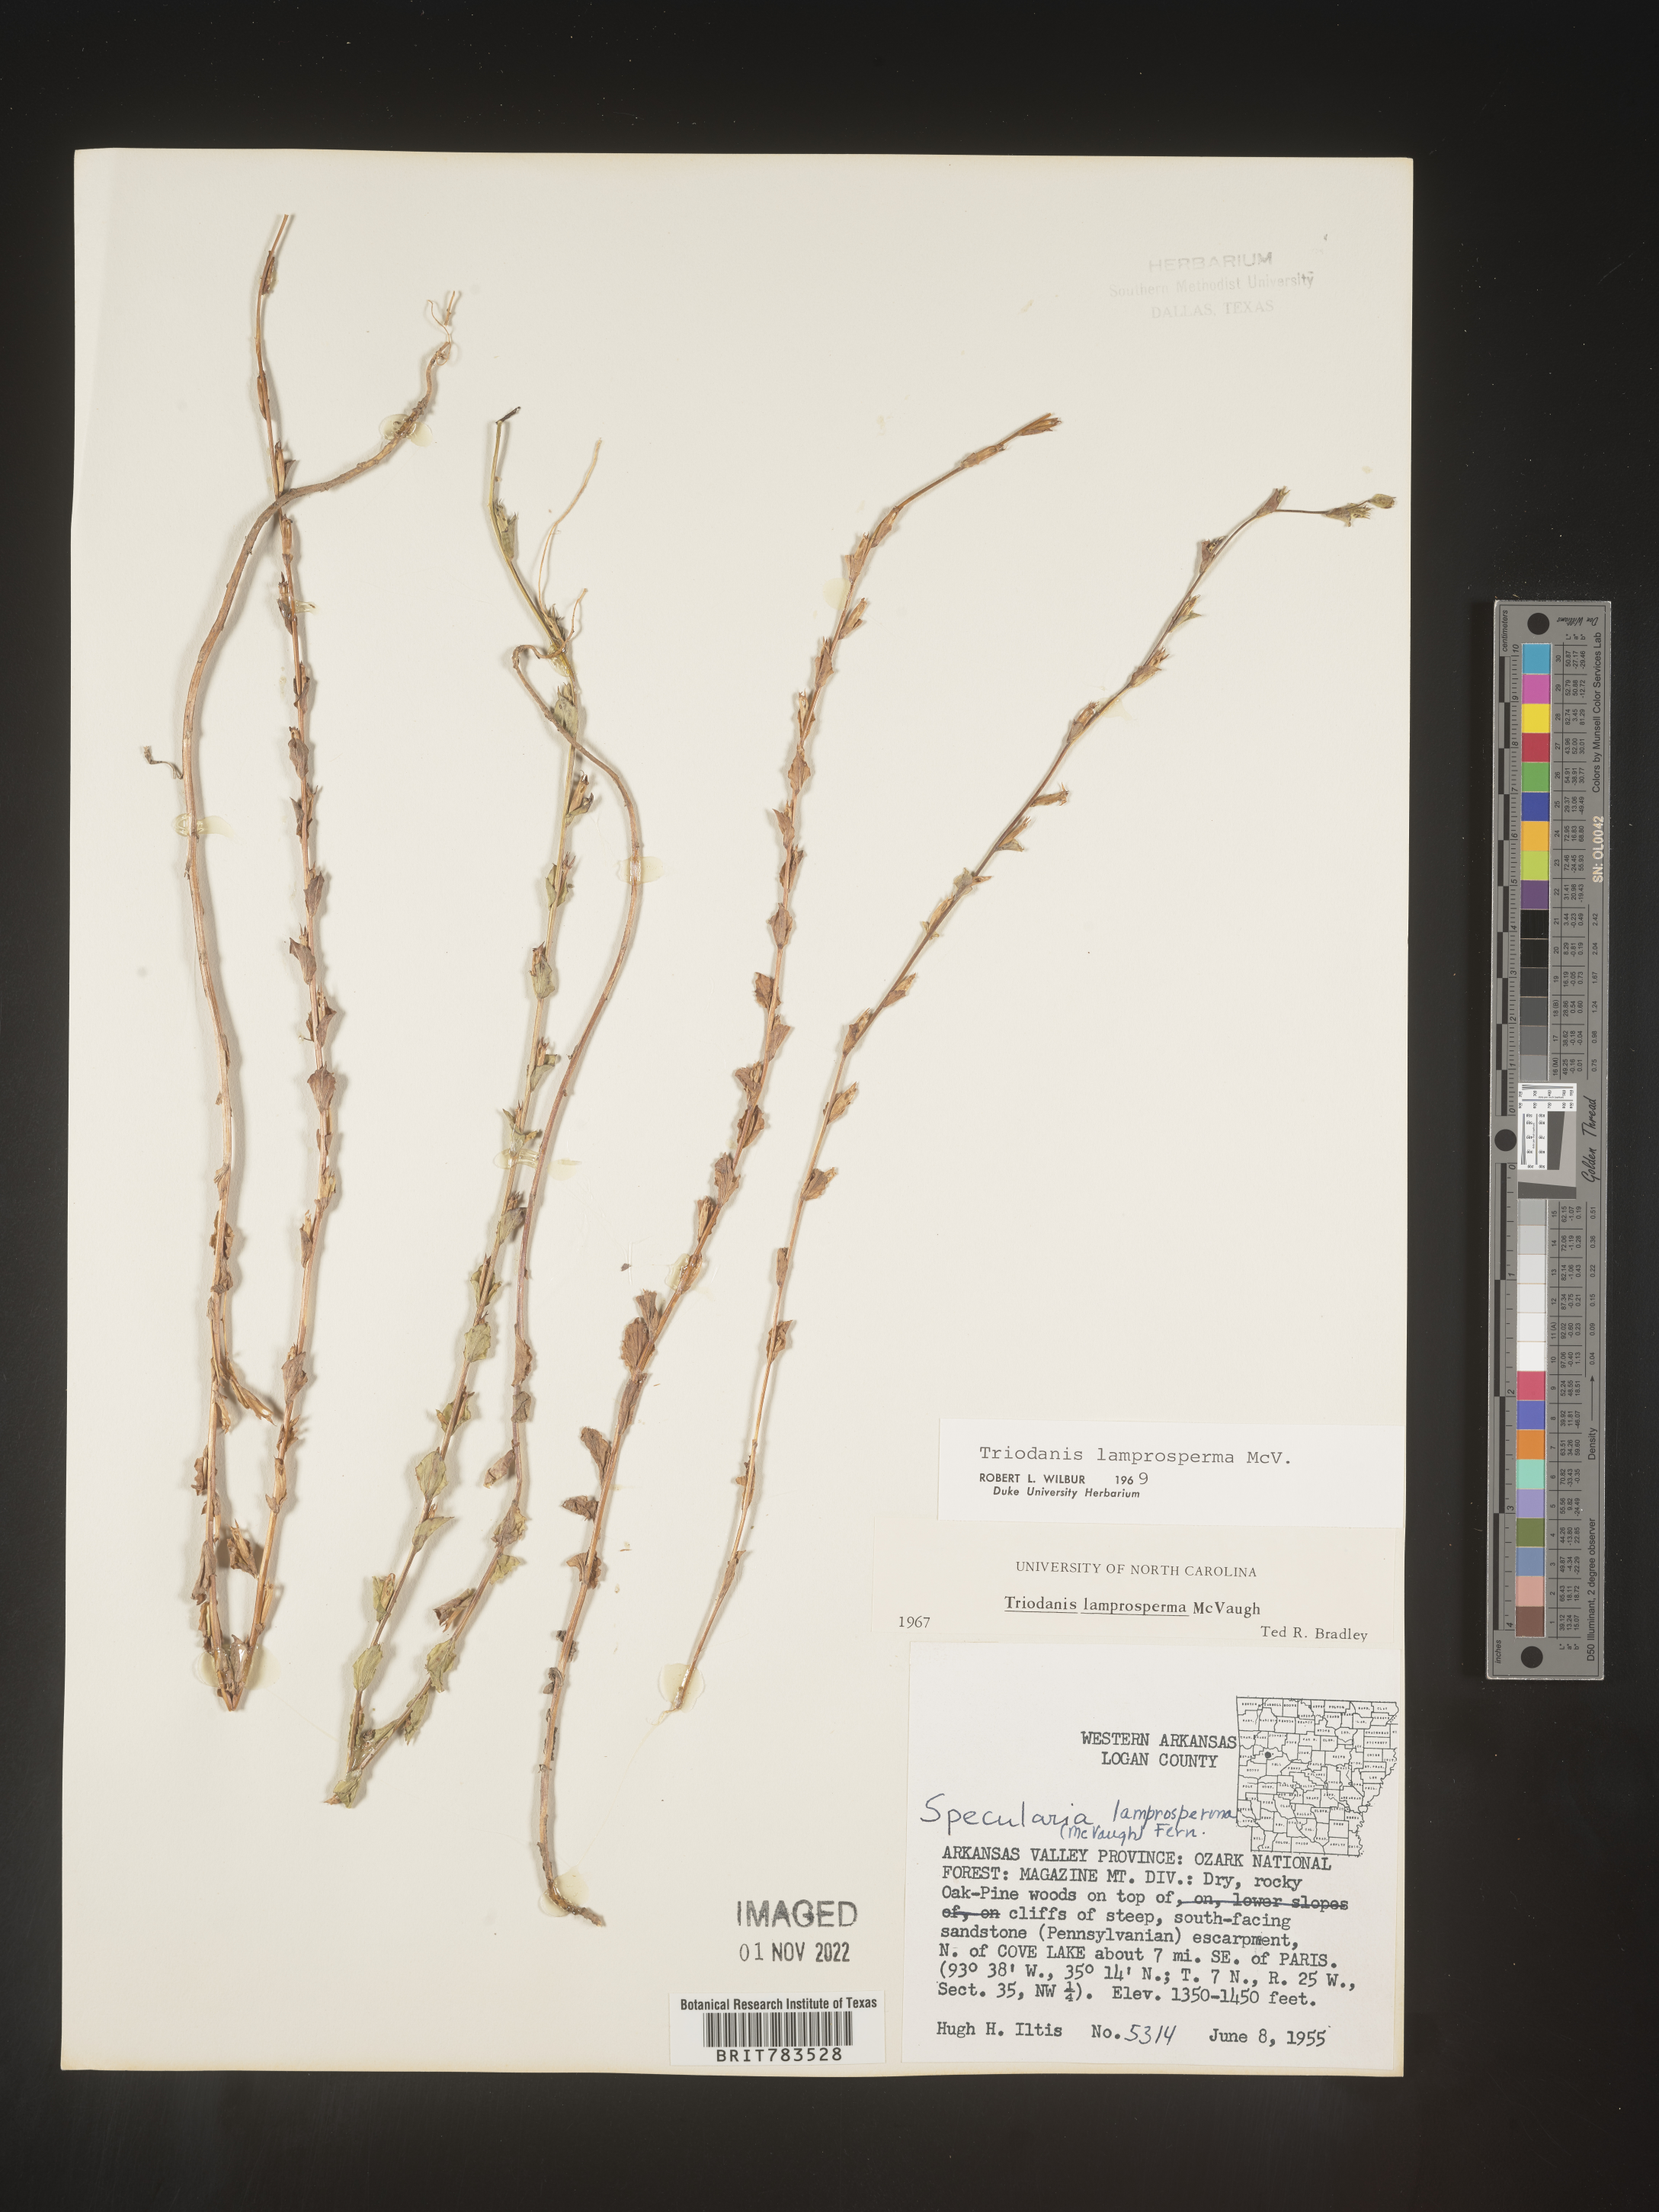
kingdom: Plantae
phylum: Tracheophyta
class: Magnoliopsida
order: Asterales
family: Campanulaceae
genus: Triodanis
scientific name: Triodanis lamprosperma
